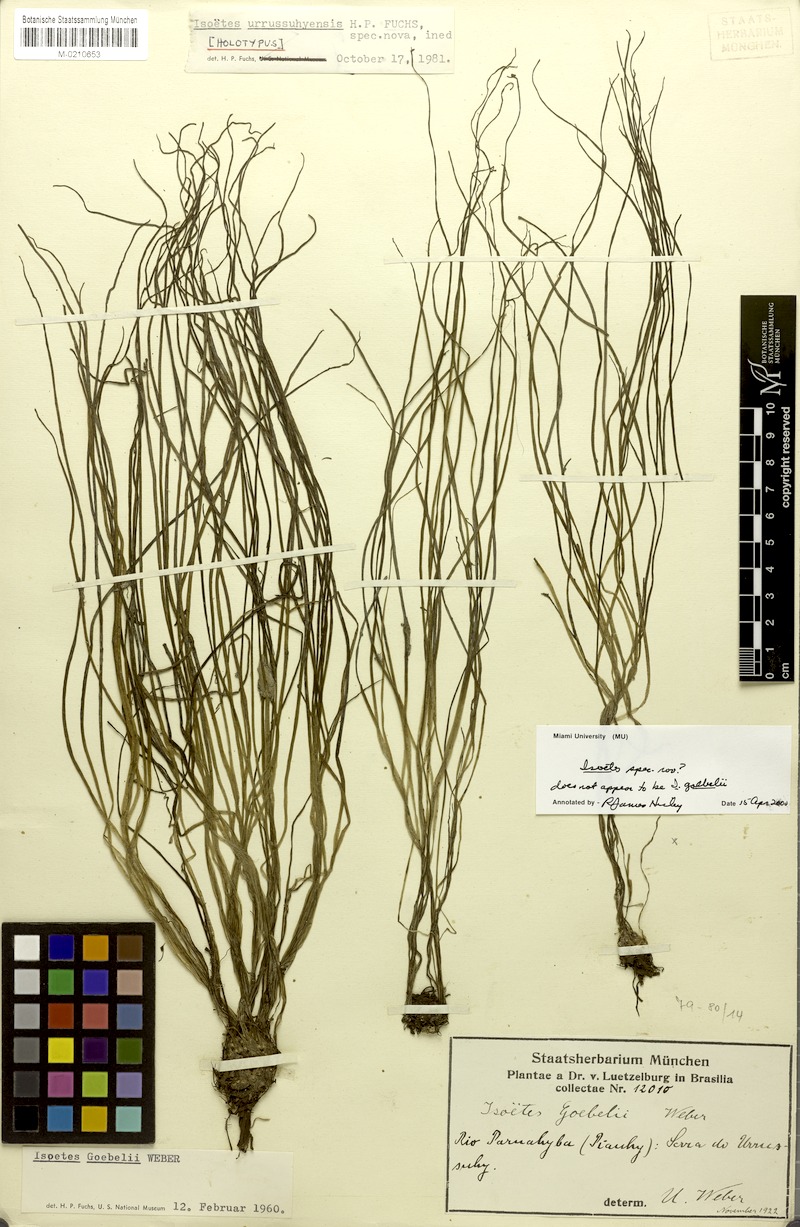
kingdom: Plantae
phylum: Tracheophyta
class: Lycopodiopsida
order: Isoetales
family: Isoetaceae
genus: Isoetes
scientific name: Isoetes
